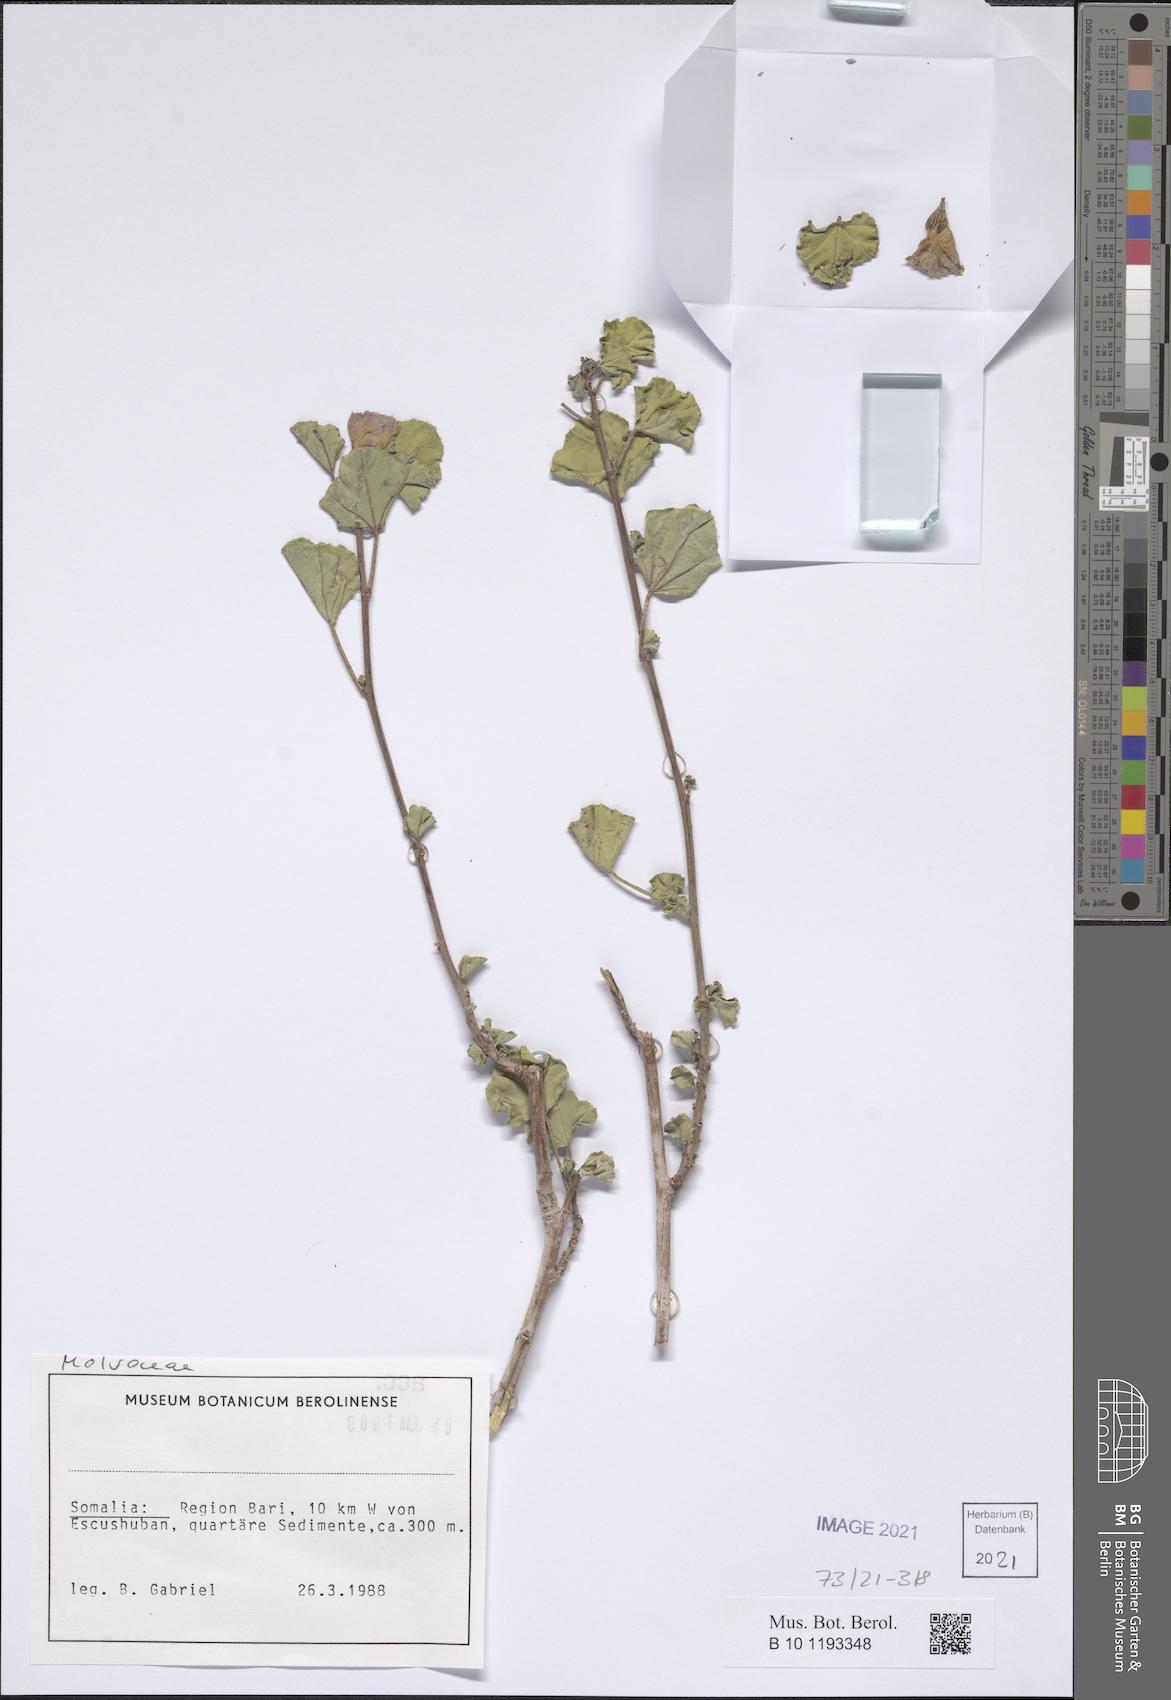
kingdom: Plantae
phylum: Tracheophyta
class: Magnoliopsida
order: Malvales
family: Malvaceae
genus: Cienfuegosia
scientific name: Cienfuegosia welshii
